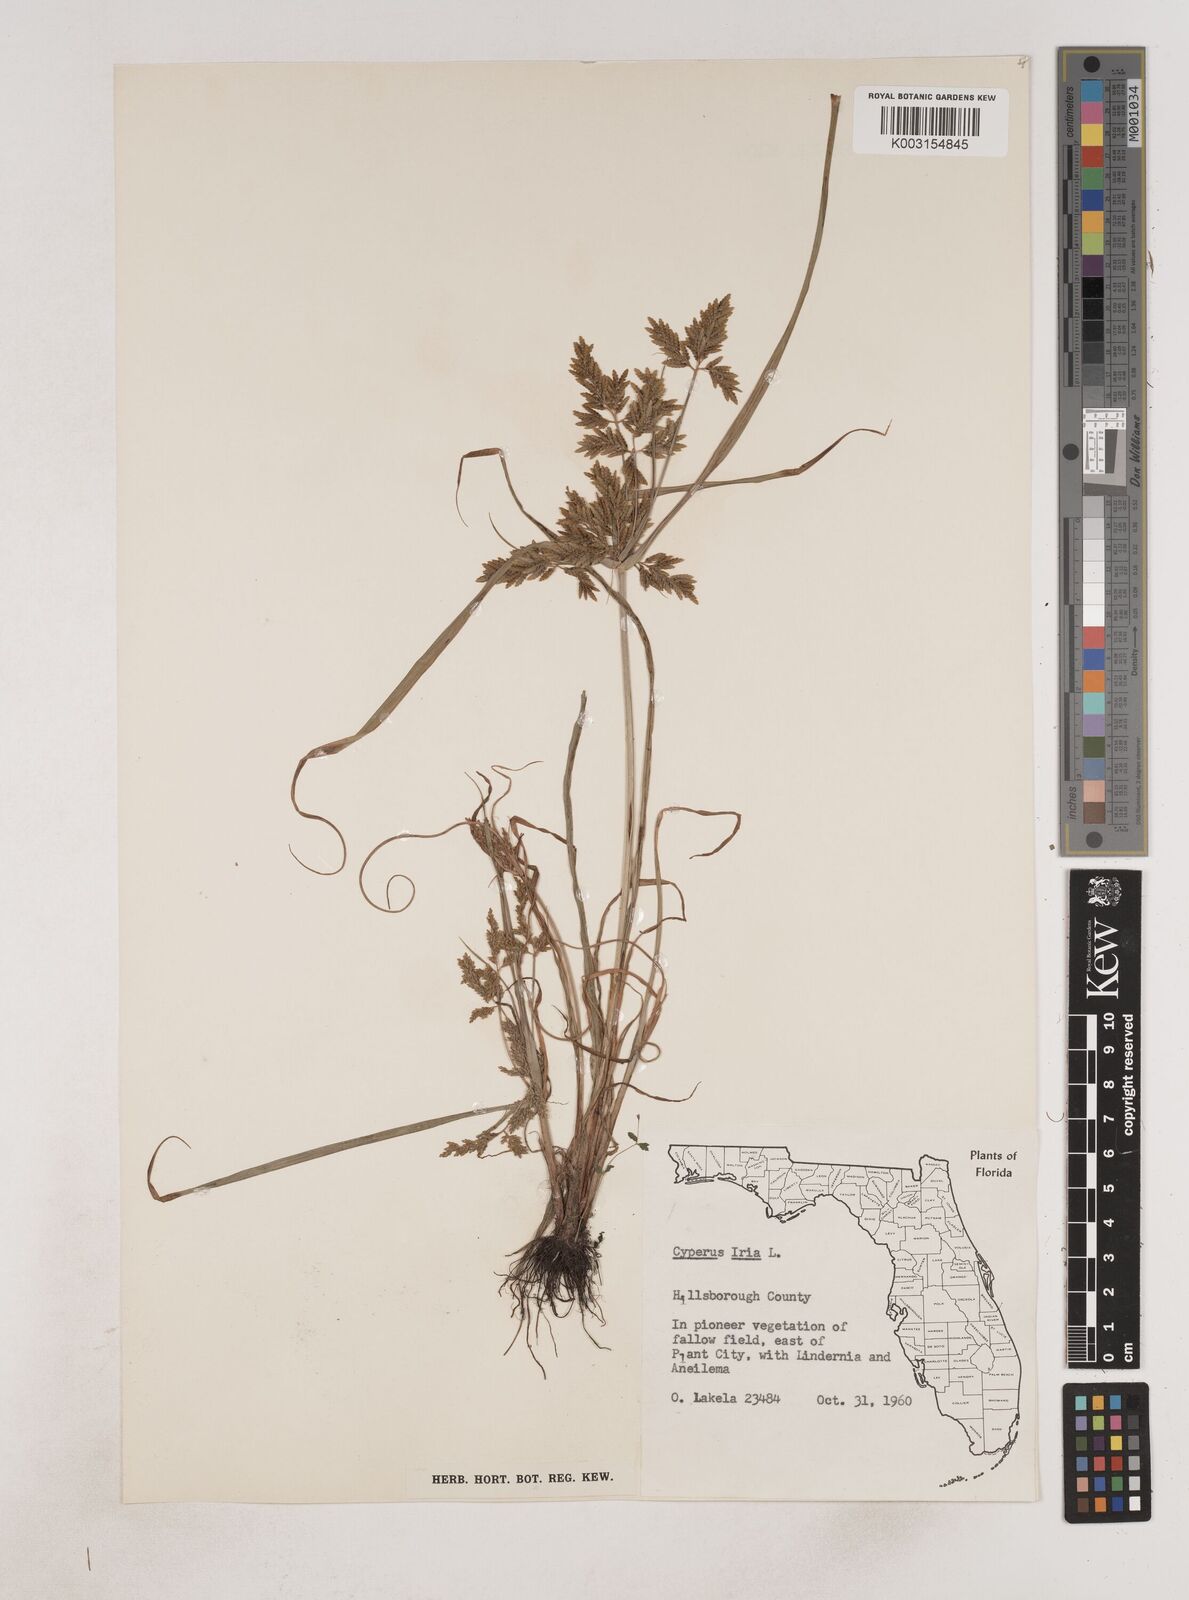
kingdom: Plantae
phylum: Tracheophyta
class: Liliopsida
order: Poales
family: Cyperaceae
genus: Cyperus
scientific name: Cyperus iria
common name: Ricefield flatsedge
